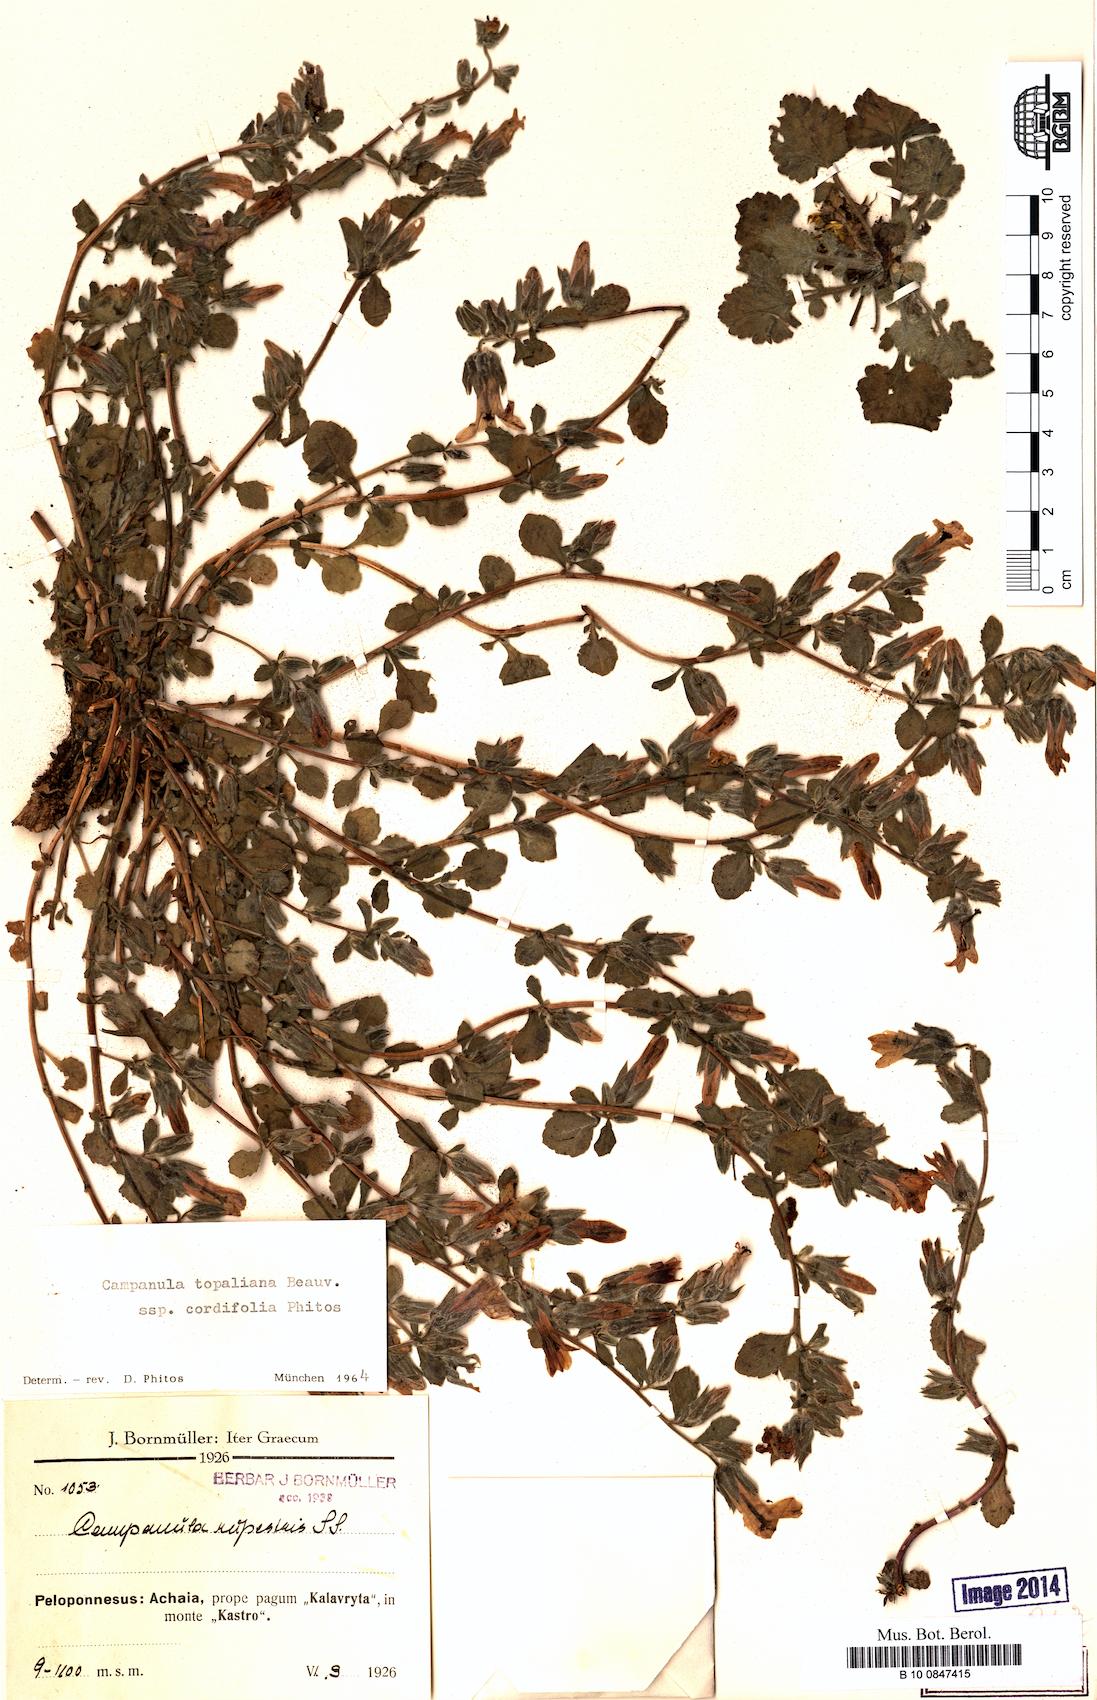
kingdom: Plantae
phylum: Tracheophyta
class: Magnoliopsida
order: Asterales
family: Campanulaceae
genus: Campanula
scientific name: Campanula topaliana
